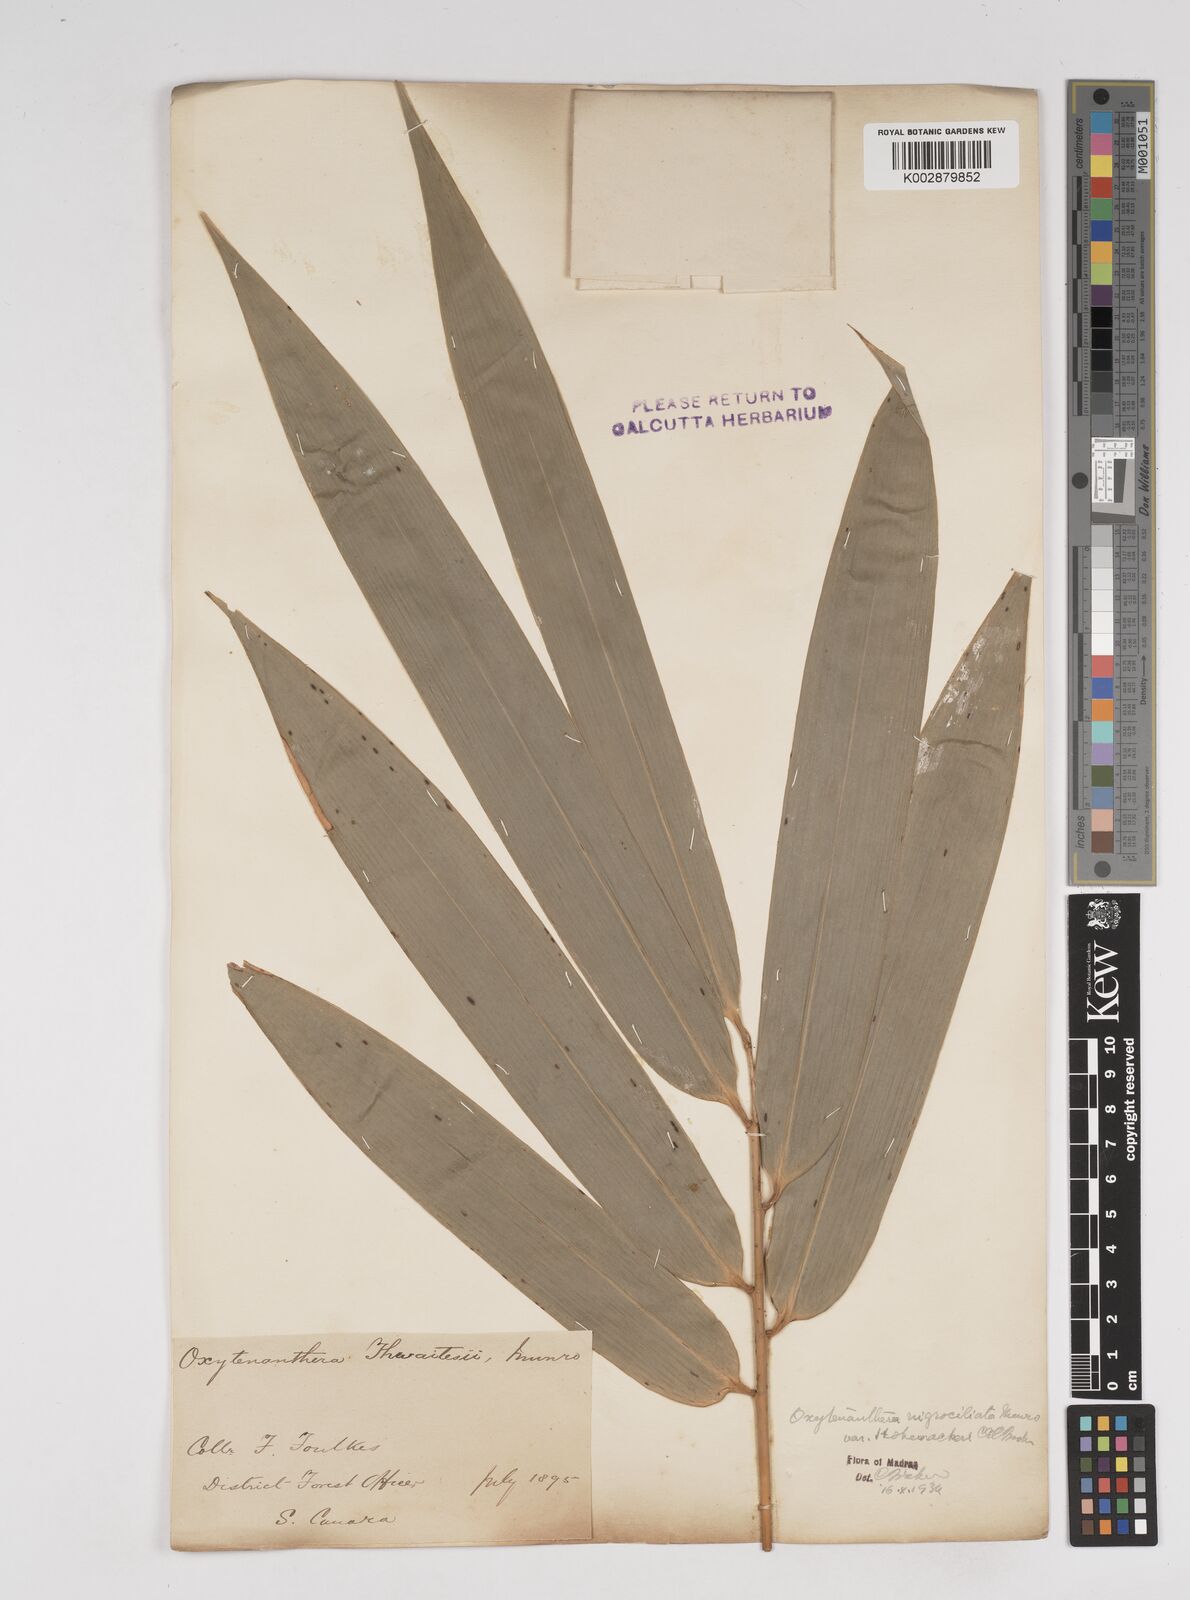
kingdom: Plantae
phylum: Tracheophyta
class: Liliopsida
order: Poales
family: Poaceae
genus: Gigantochloa
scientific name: Gigantochloa latifolia
